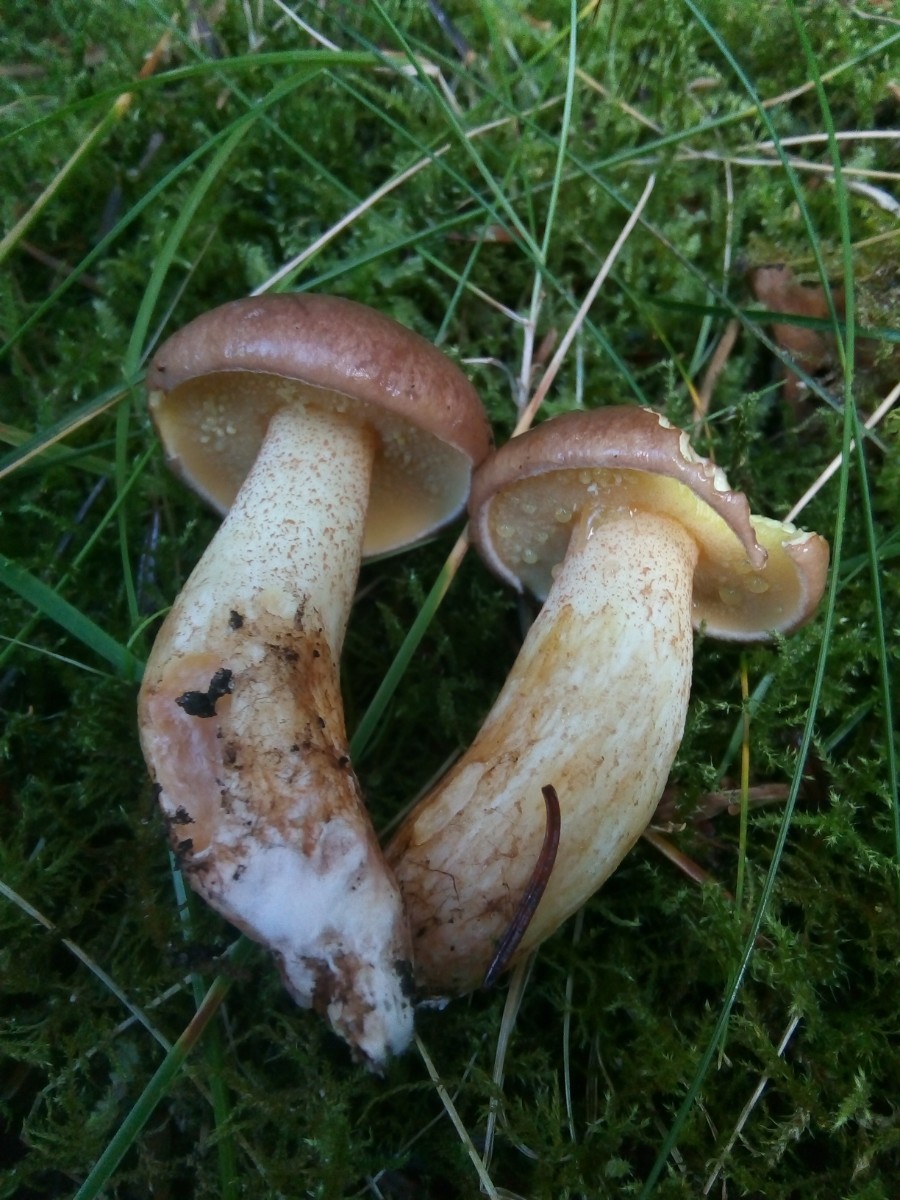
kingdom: Fungi
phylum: Basidiomycota
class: Agaricomycetes
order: Boletales
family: Suillaceae
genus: Suillus
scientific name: Suillus granulatus
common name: kornet slimrørhat
